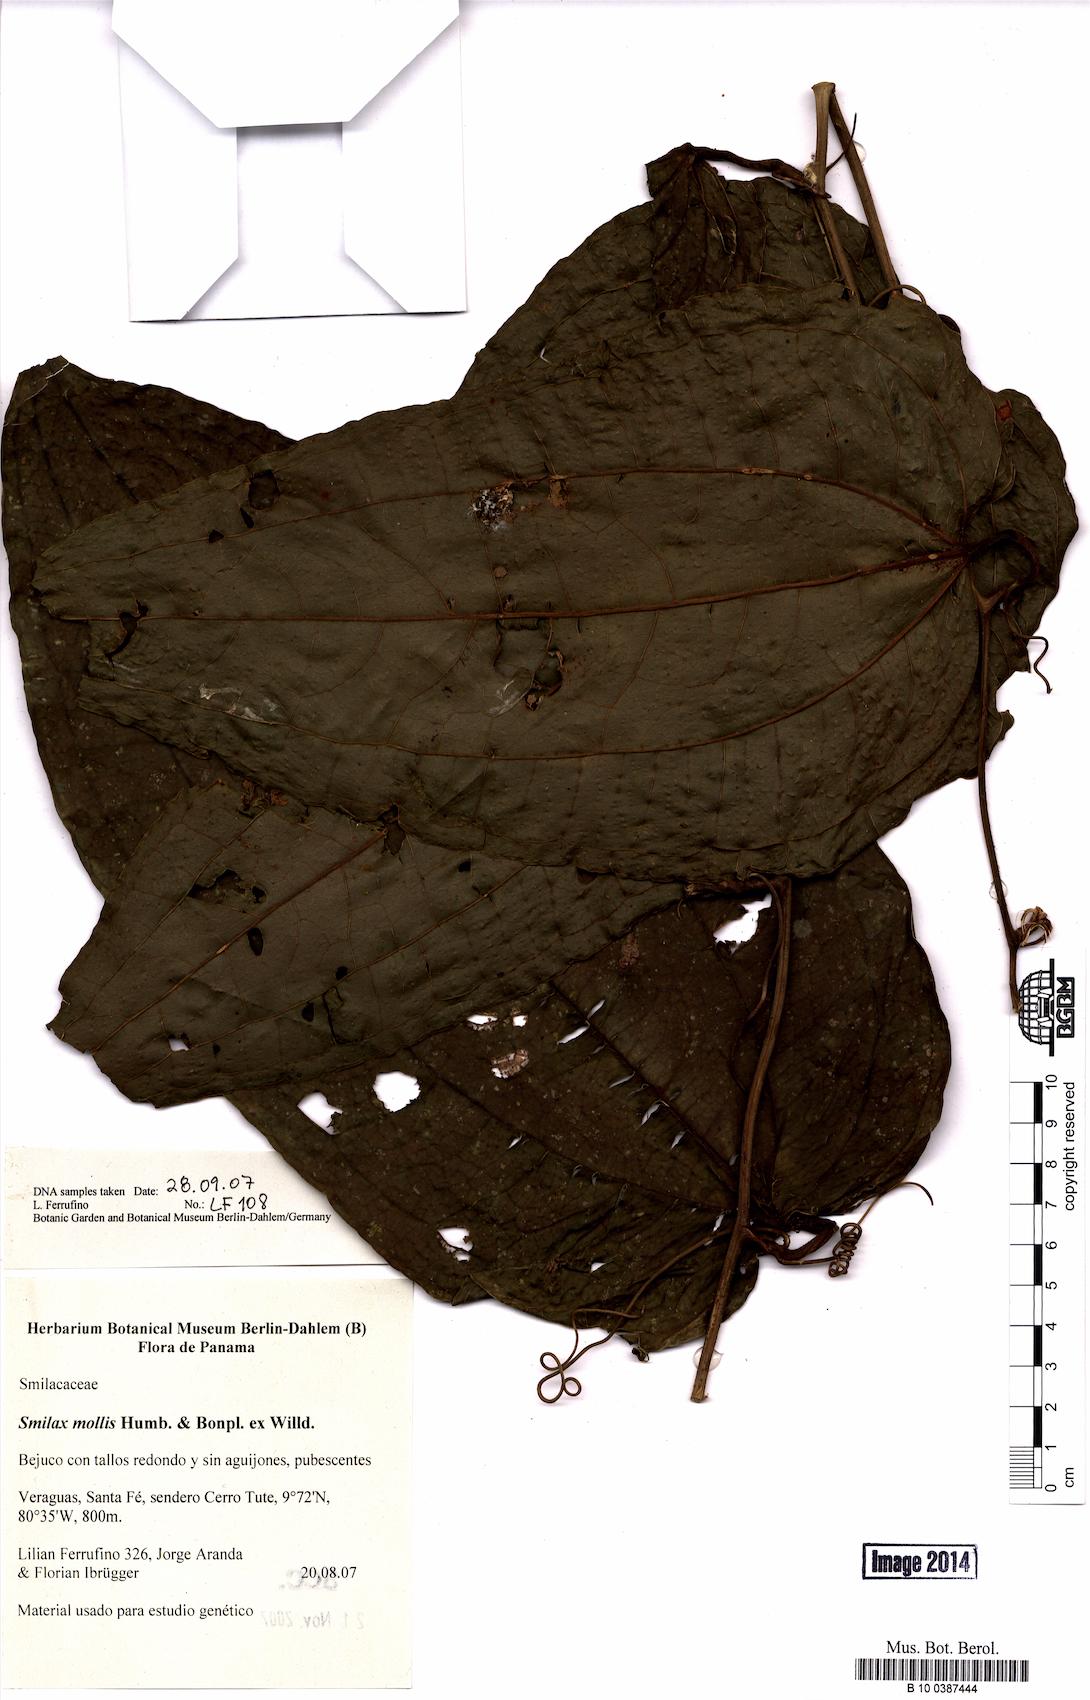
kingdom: Plantae
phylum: Tracheophyta
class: Liliopsida
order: Liliales
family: Smilacaceae
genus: Smilax
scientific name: Smilax mollis
